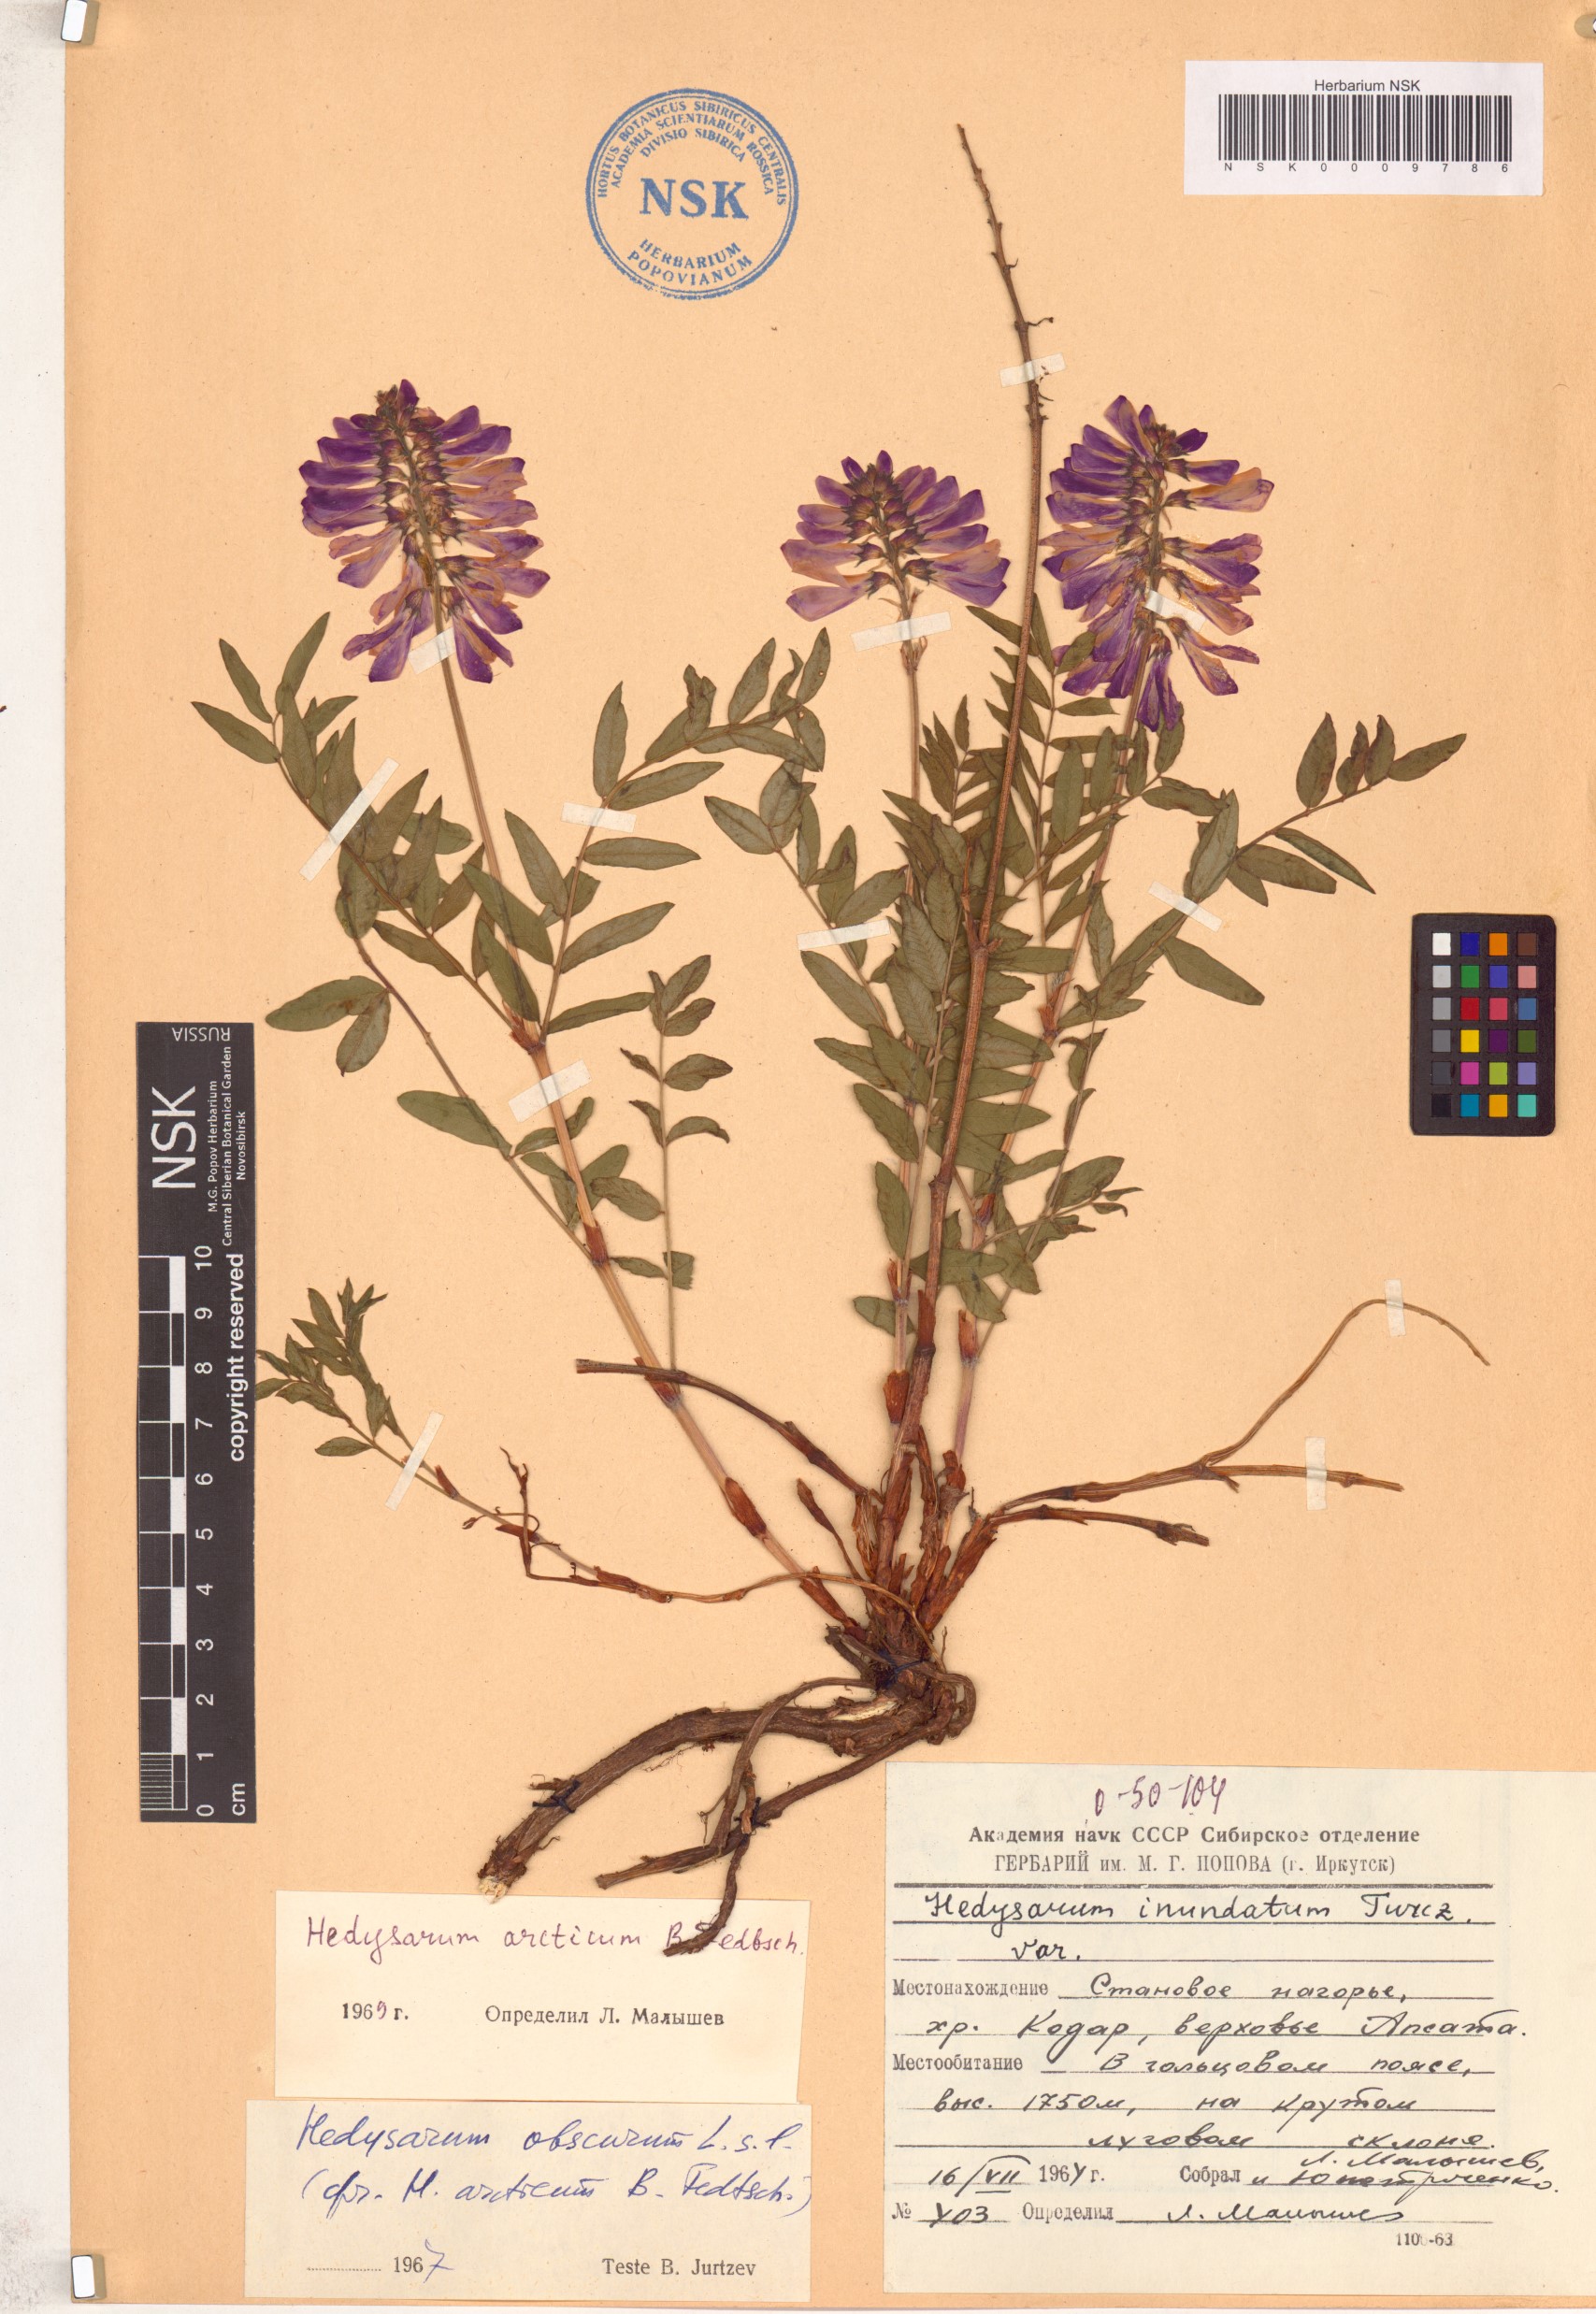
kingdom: Plantae
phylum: Tracheophyta
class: Magnoliopsida
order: Fabales
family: Fabaceae
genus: Hedysarum
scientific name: Hedysarum hedysaroides
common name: Alpine french-honeysuckle
